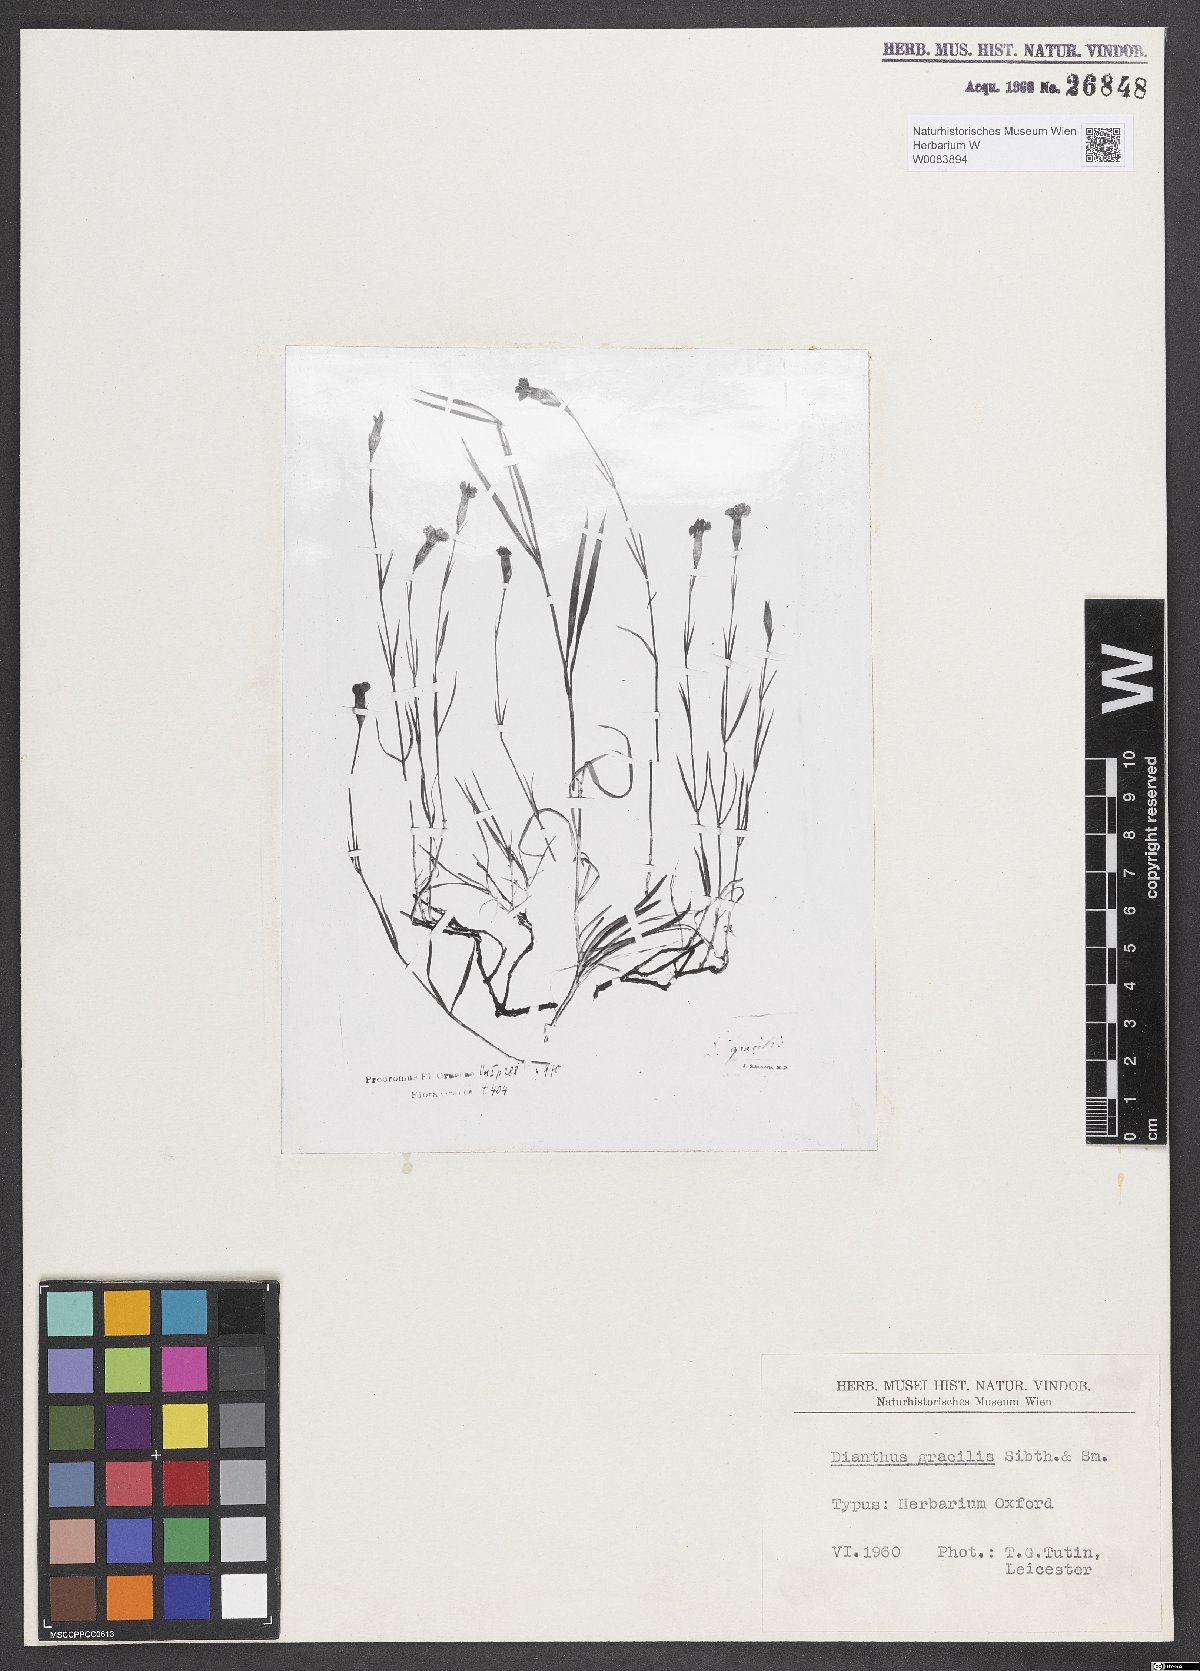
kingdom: Plantae
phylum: Tracheophyta
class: Magnoliopsida
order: Caryophyllales
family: Caryophyllaceae
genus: Dianthus
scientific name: Dianthus gracilis
